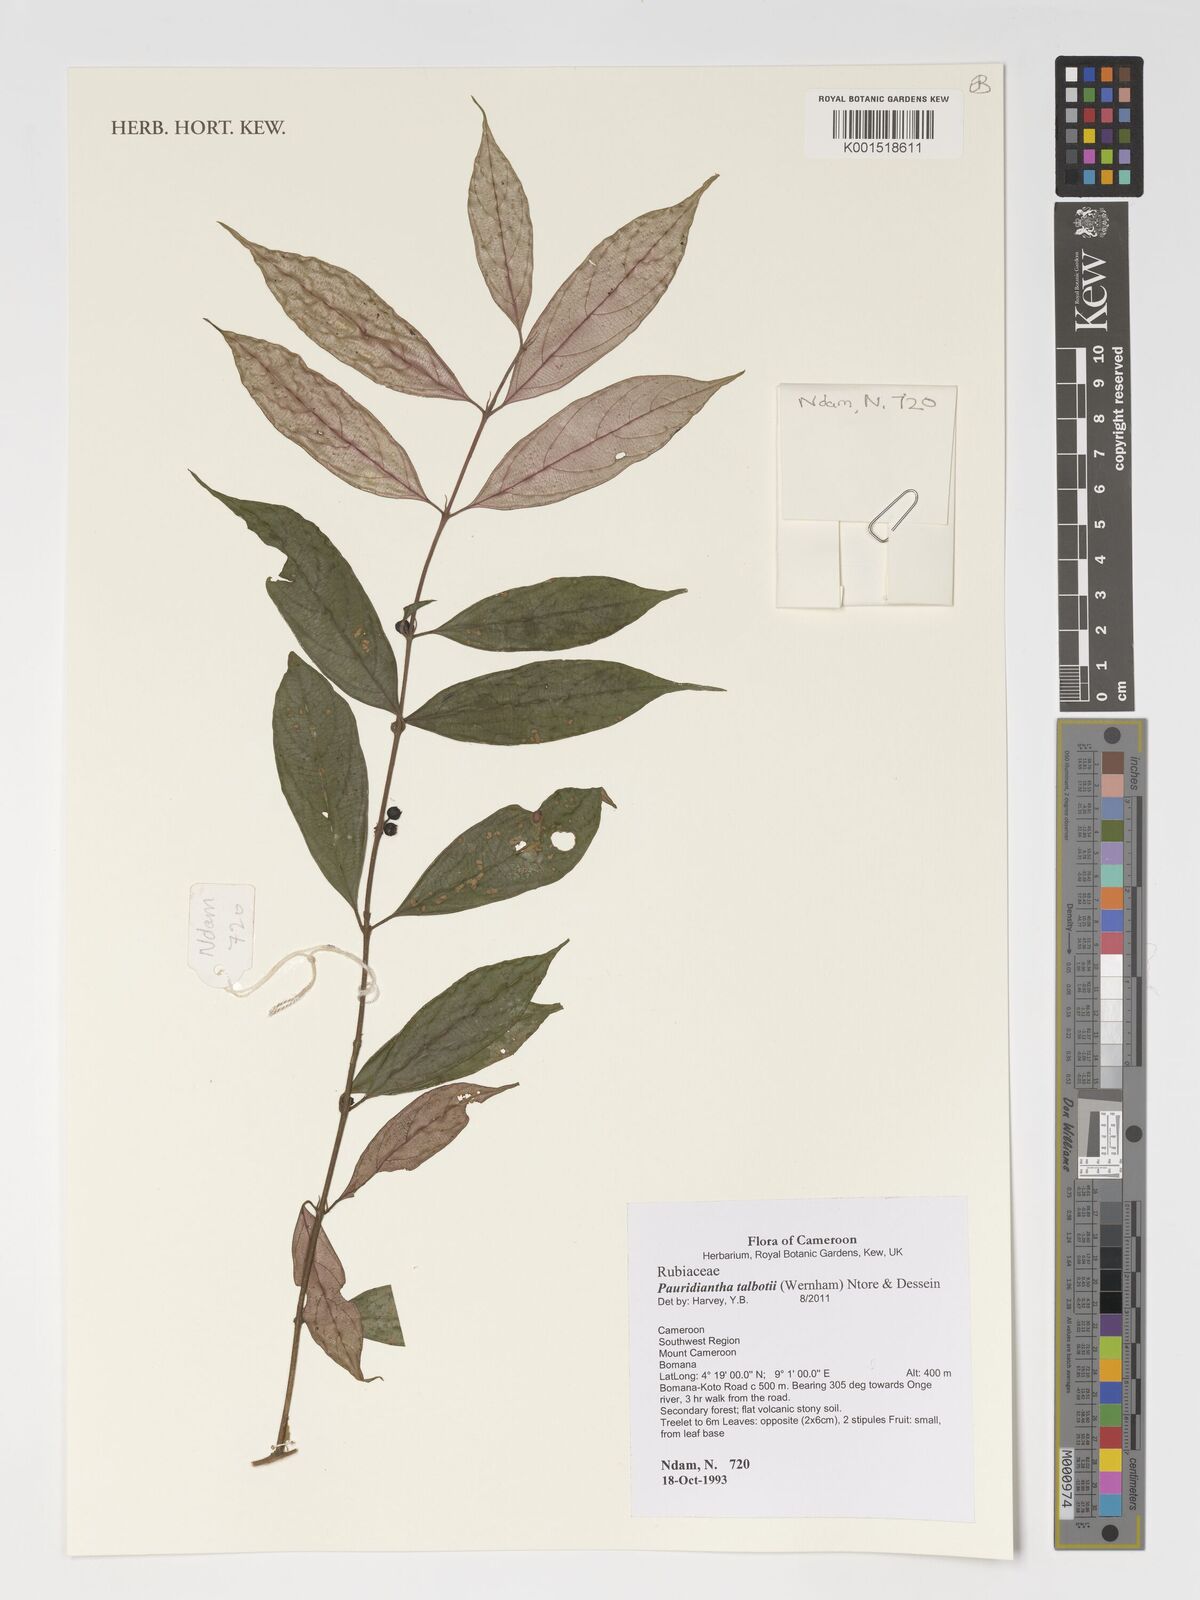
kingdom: Plantae
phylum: Tracheophyta
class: Magnoliopsida
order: Gentianales
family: Rubiaceae
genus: Pauridiantha
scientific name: Pauridiantha talbotii
